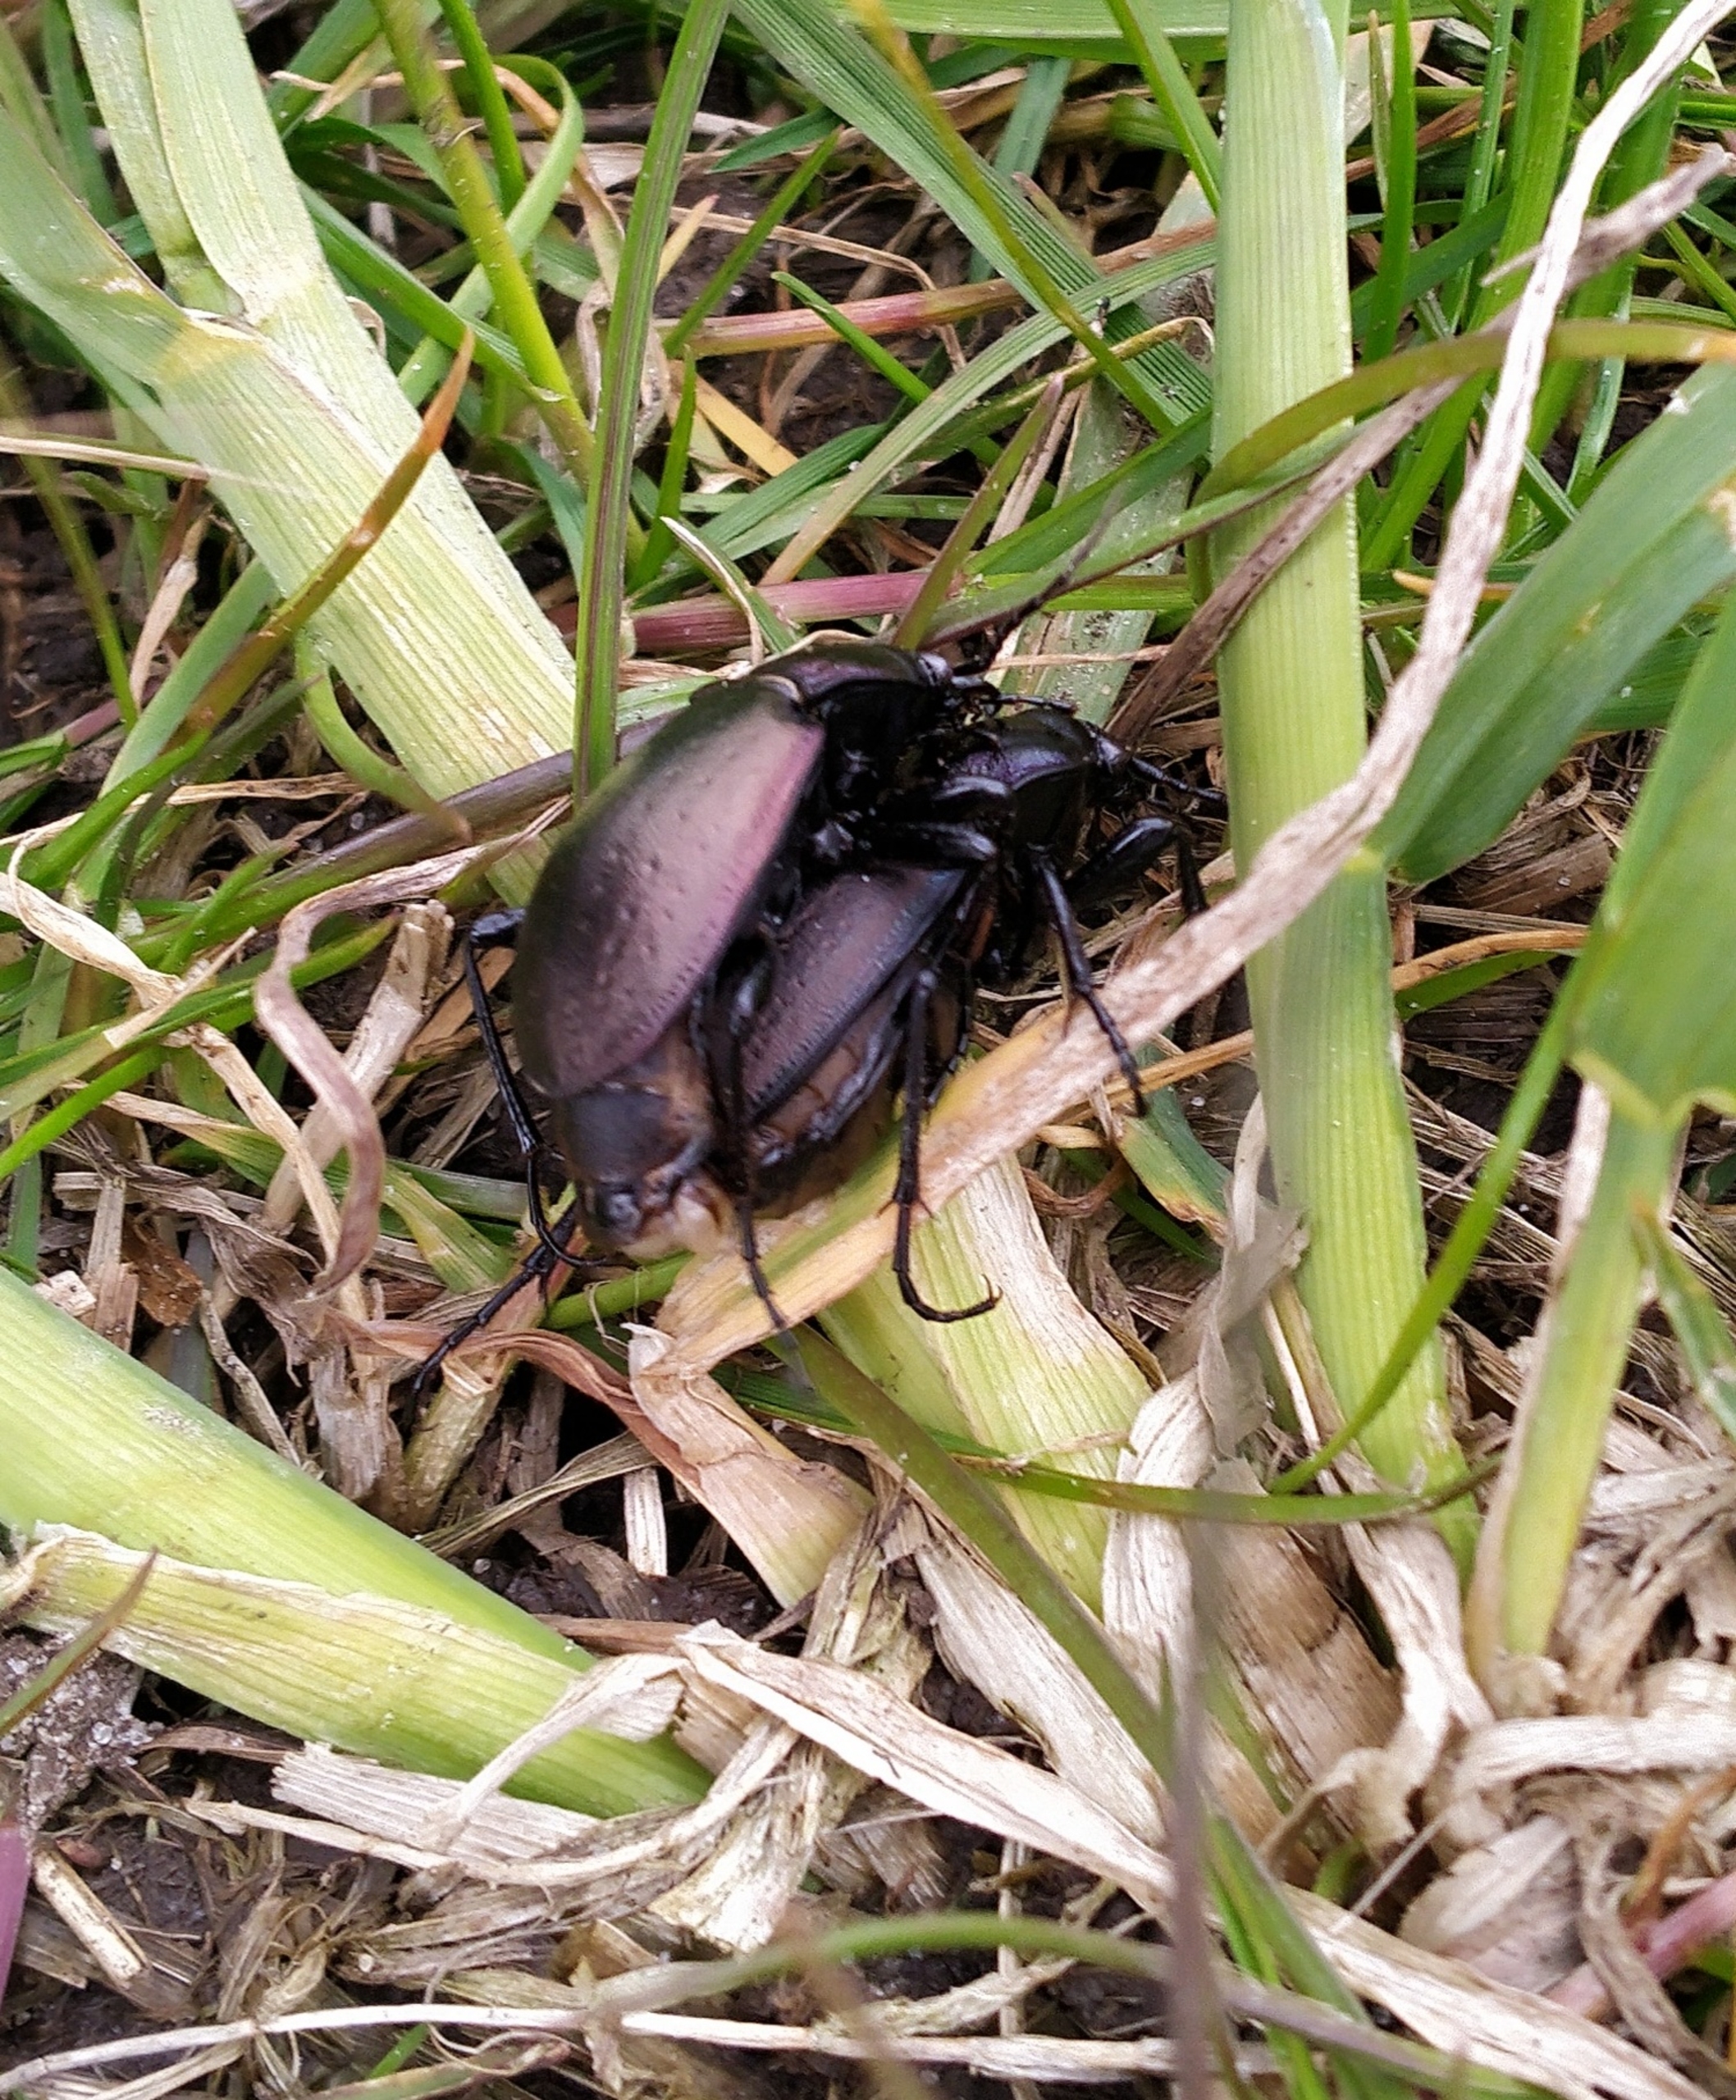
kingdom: Animalia
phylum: Arthropoda
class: Insecta
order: Coleoptera
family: Carabidae
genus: Carabus
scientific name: Carabus nemoralis
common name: Kratløber
